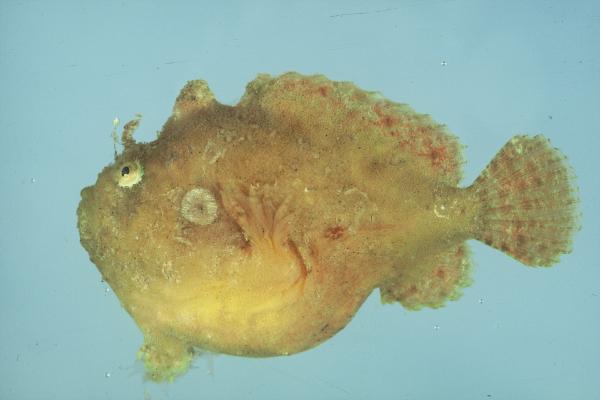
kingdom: Animalia
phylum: Chordata
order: Lophiiformes
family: Antennariidae
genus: Antennatus
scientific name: Antennatus coccineus
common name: Scarlet frogfish
